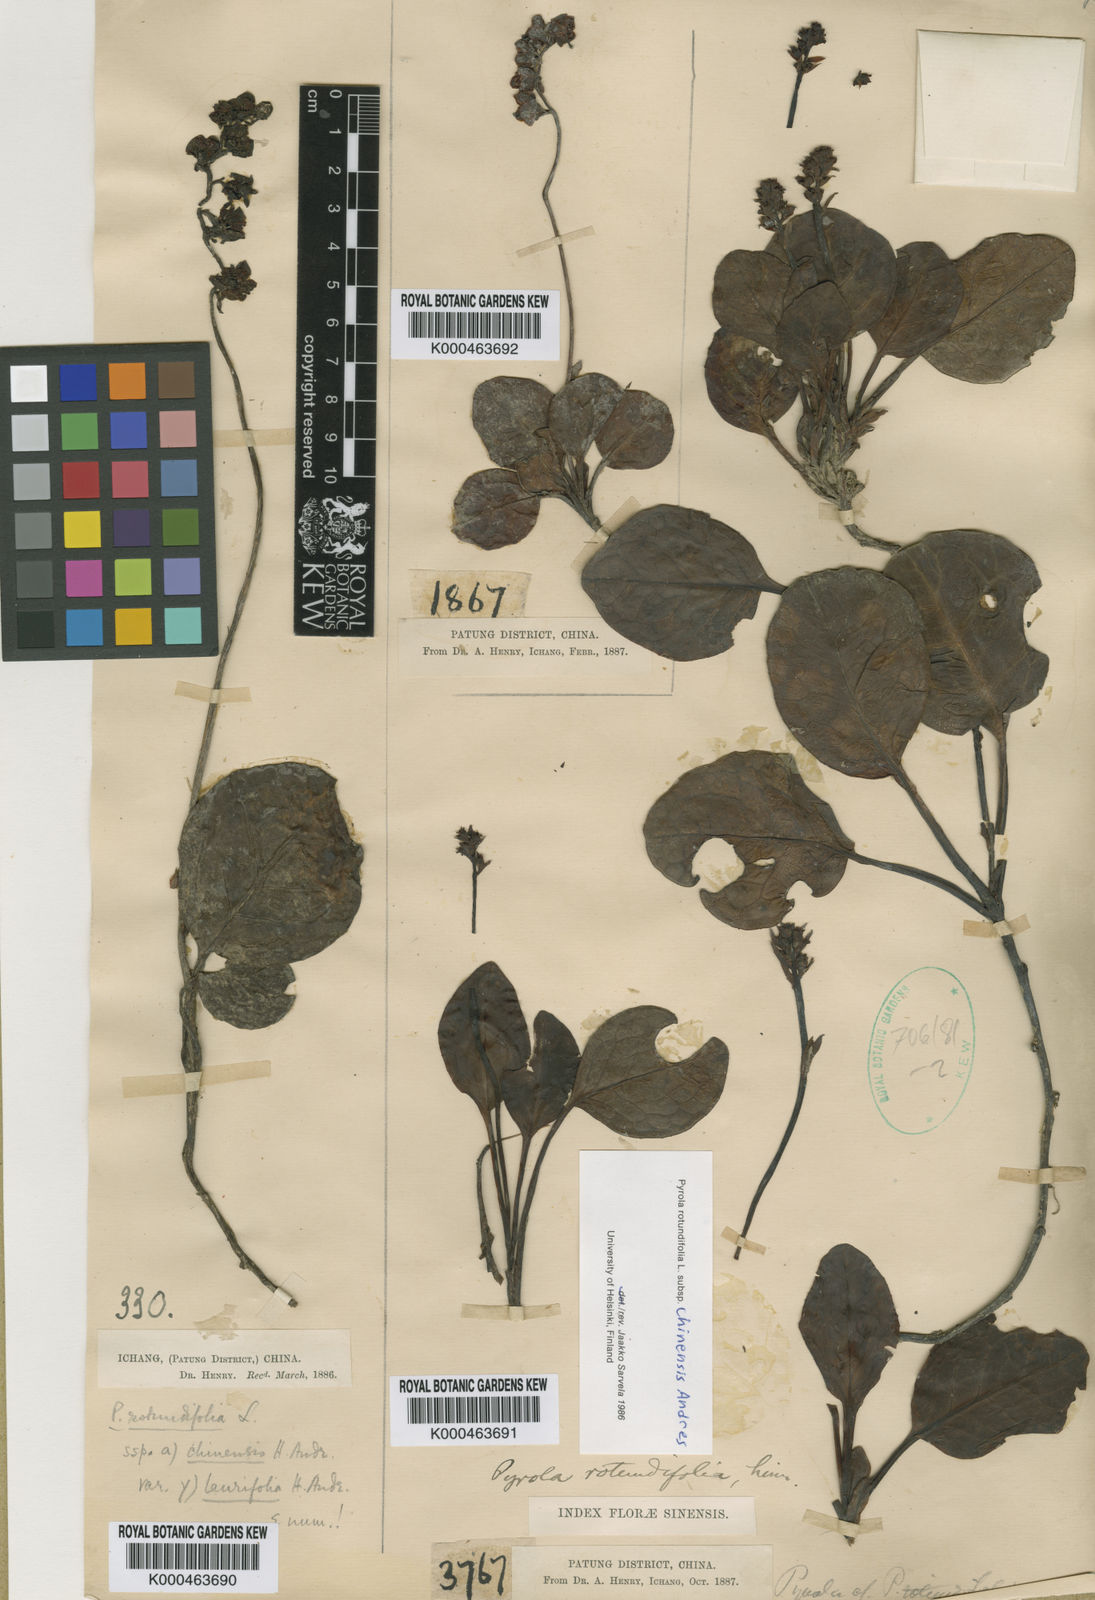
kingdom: Plantae
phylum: Tracheophyta
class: Magnoliopsida
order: Ericales
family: Ericaceae
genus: Pyrola
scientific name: Pyrola rotundifolia
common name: Round-leaved wintergreen
